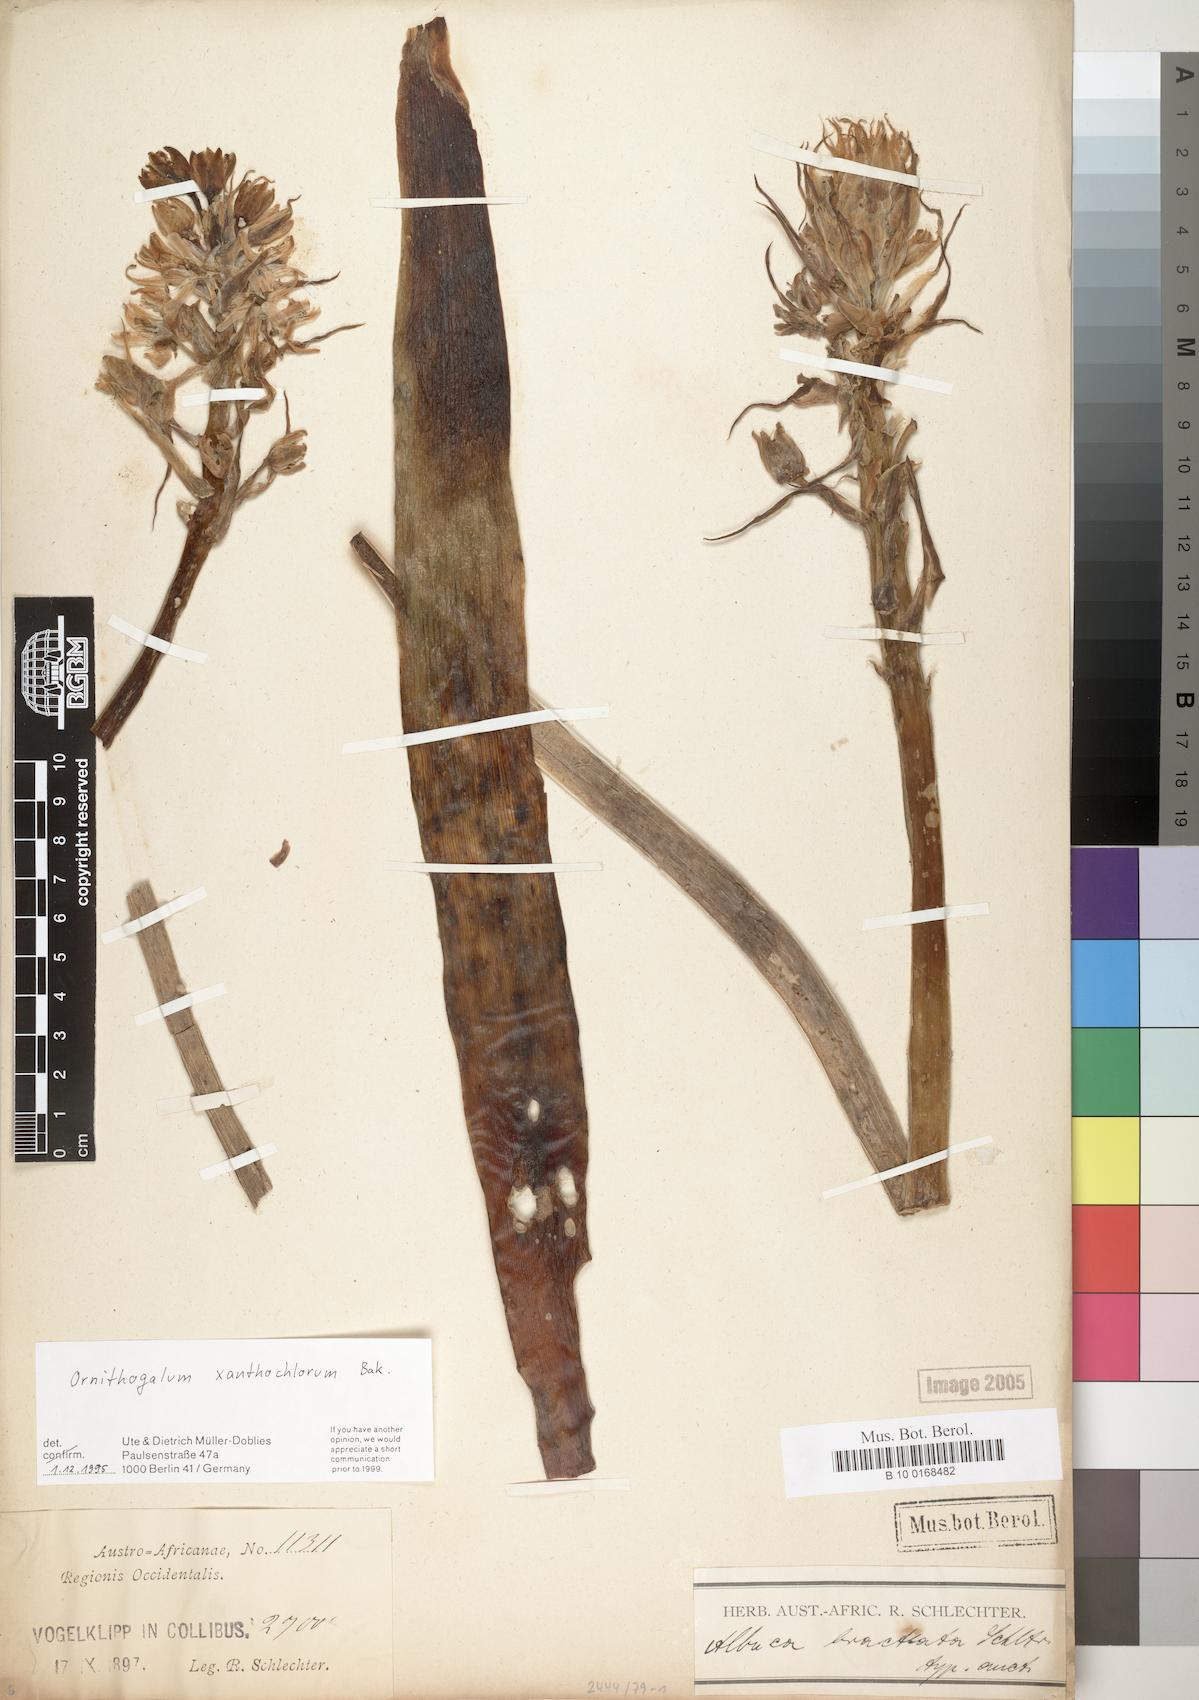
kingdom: Plantae
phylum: Tracheophyta
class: Liliopsida
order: Asparagales
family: Asparagaceae
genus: Ornithogalum
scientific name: Ornithogalum xanthochlorum
